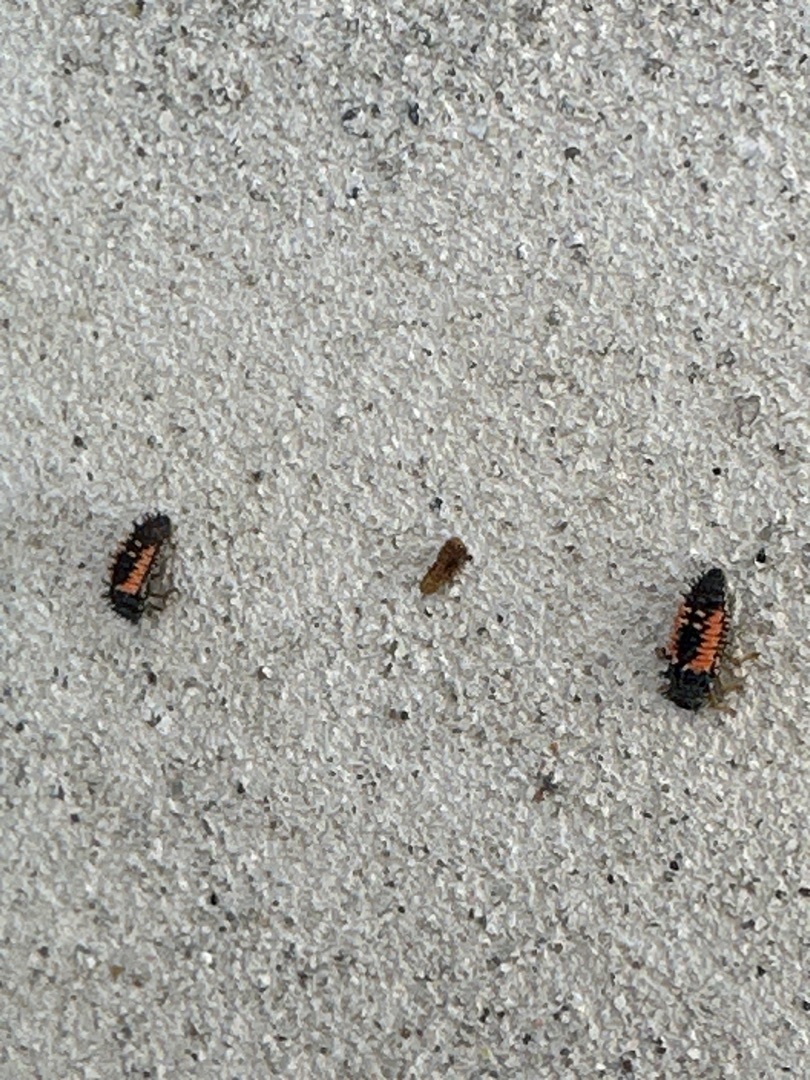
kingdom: Animalia
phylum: Arthropoda
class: Insecta
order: Coleoptera
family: Coccinellidae
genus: Harmonia
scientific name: Harmonia axyridis
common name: Harlekinmariehøne
